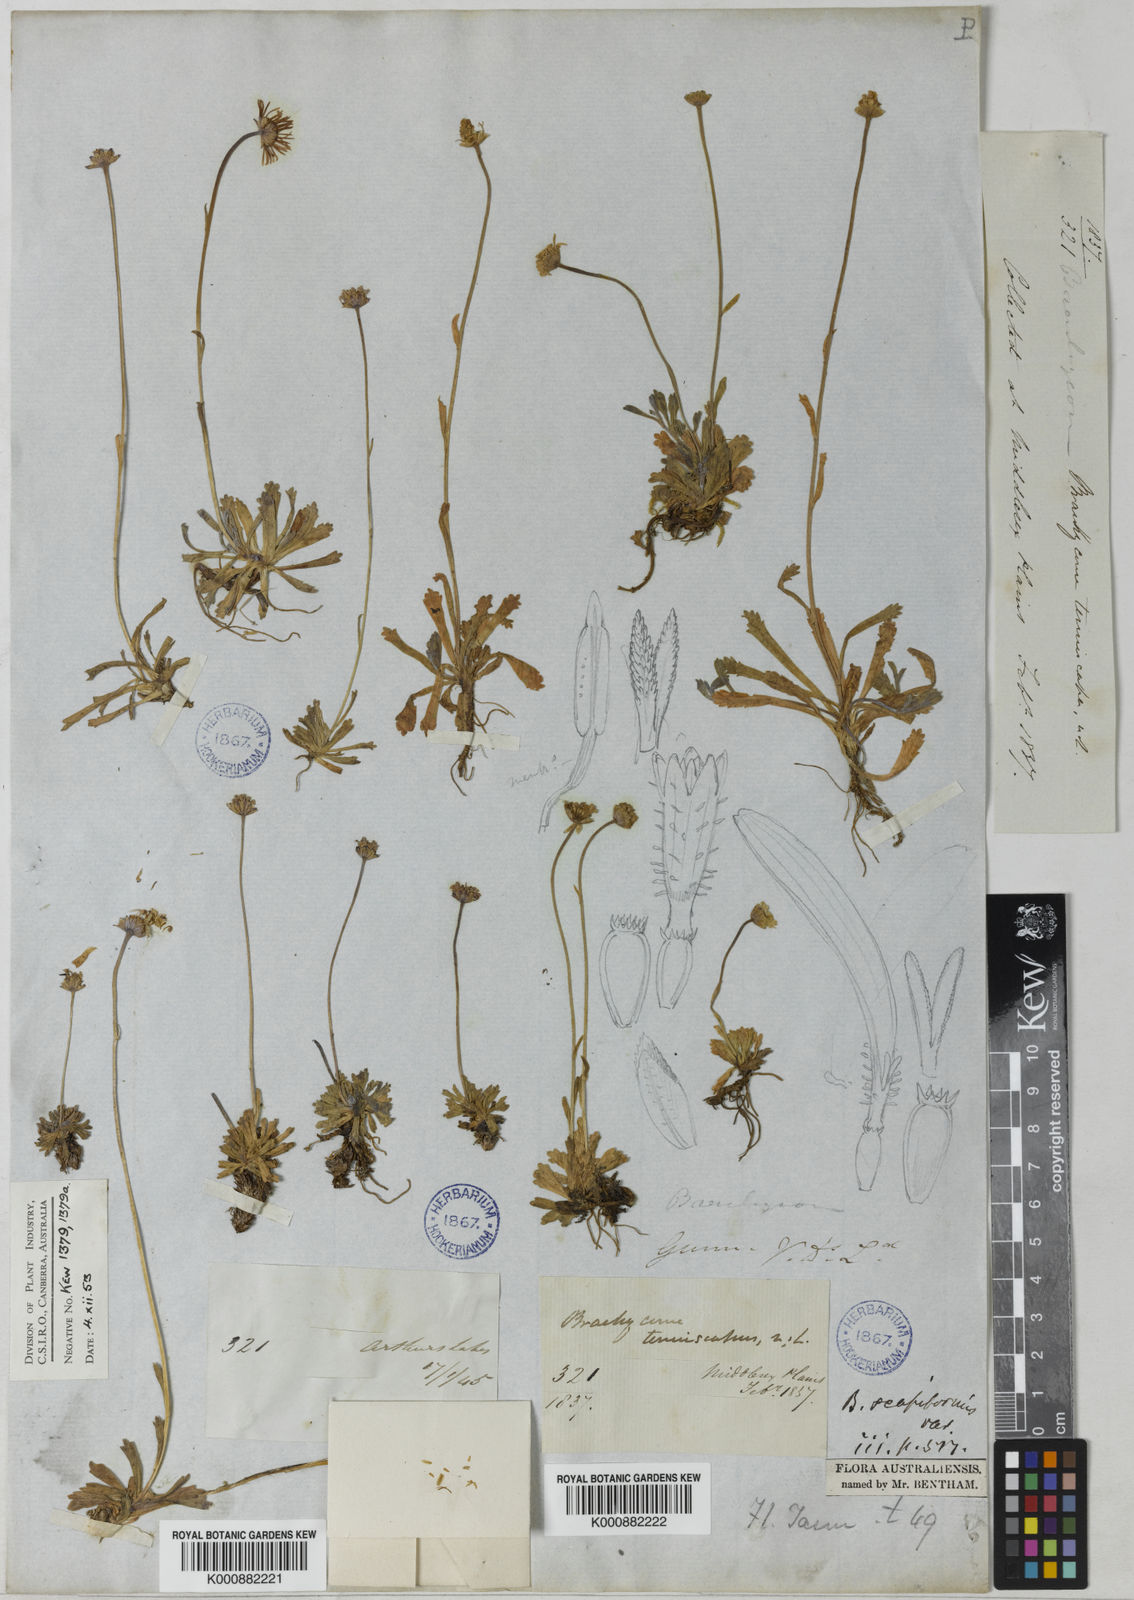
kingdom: Plantae
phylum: Tracheophyta
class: Magnoliopsida
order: Asterales
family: Asteraceae
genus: Brachyscome
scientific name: Brachyscome tenuiscapa
